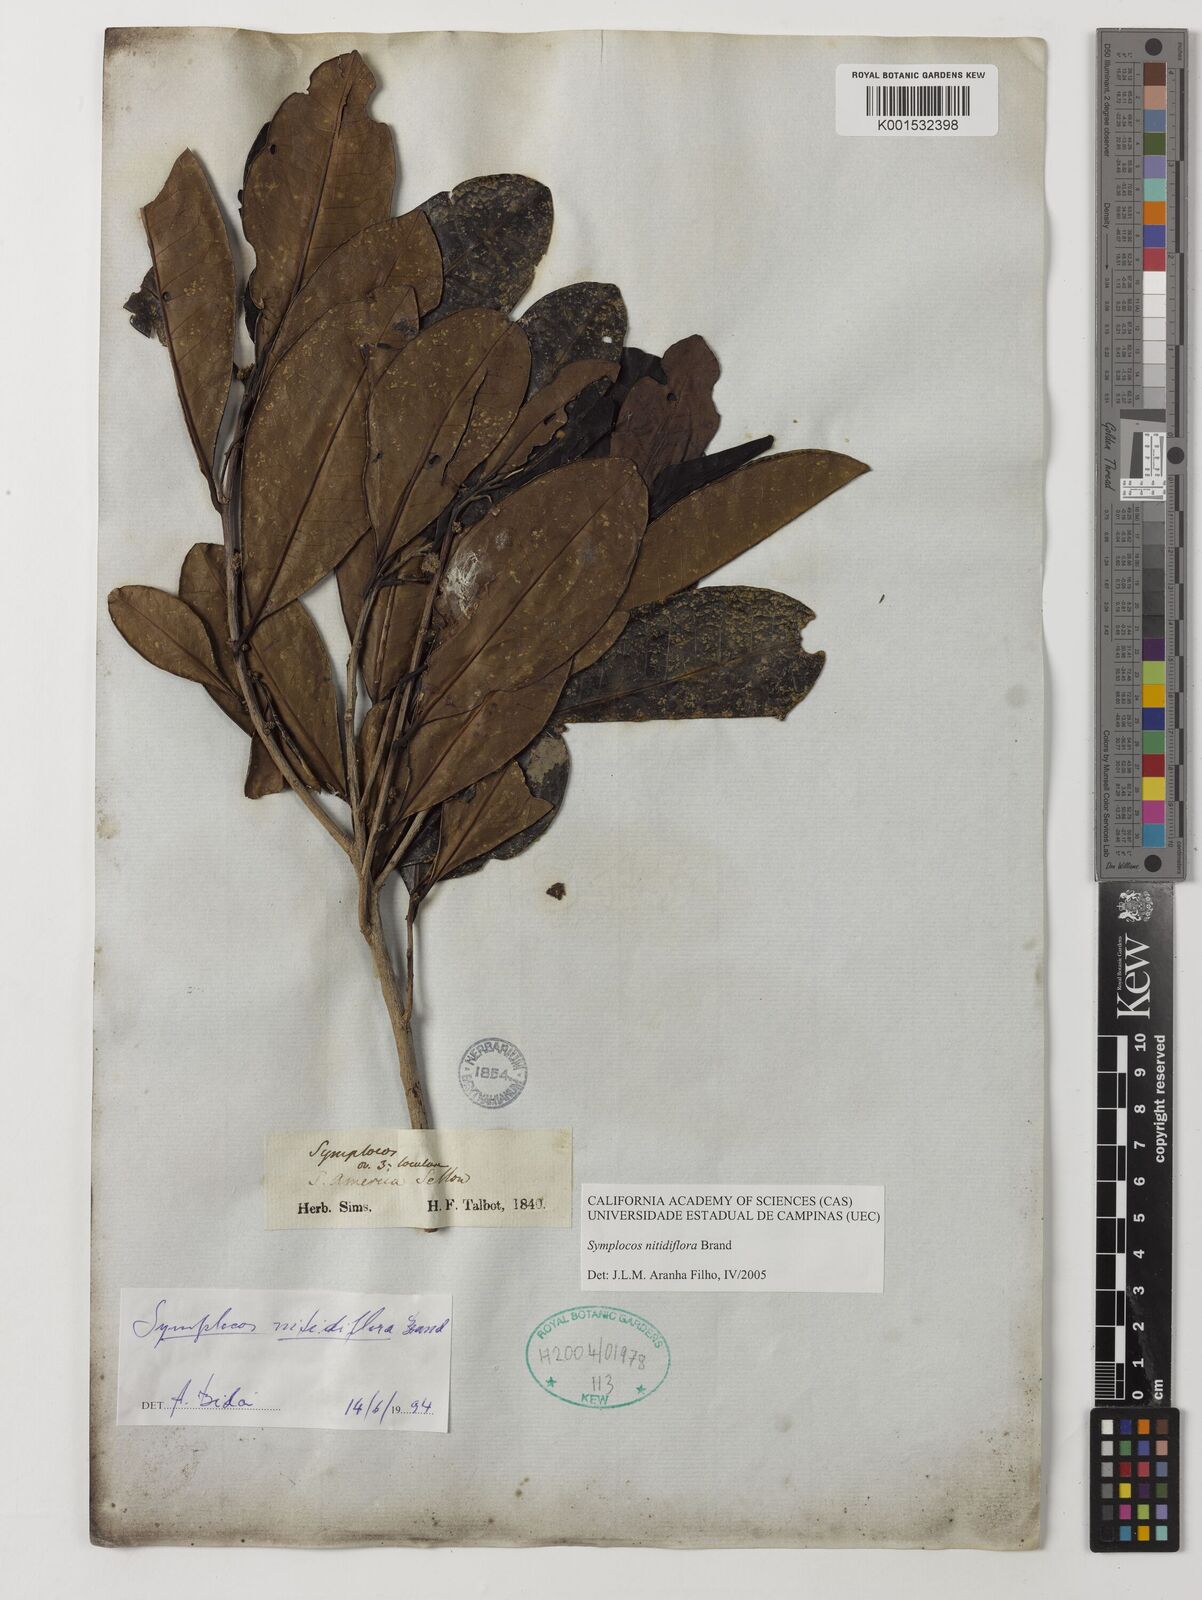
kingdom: Plantae
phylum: Tracheophyta
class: Magnoliopsida
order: Ericales
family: Symplocaceae
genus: Symplocos
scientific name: Symplocos nitidiflora
